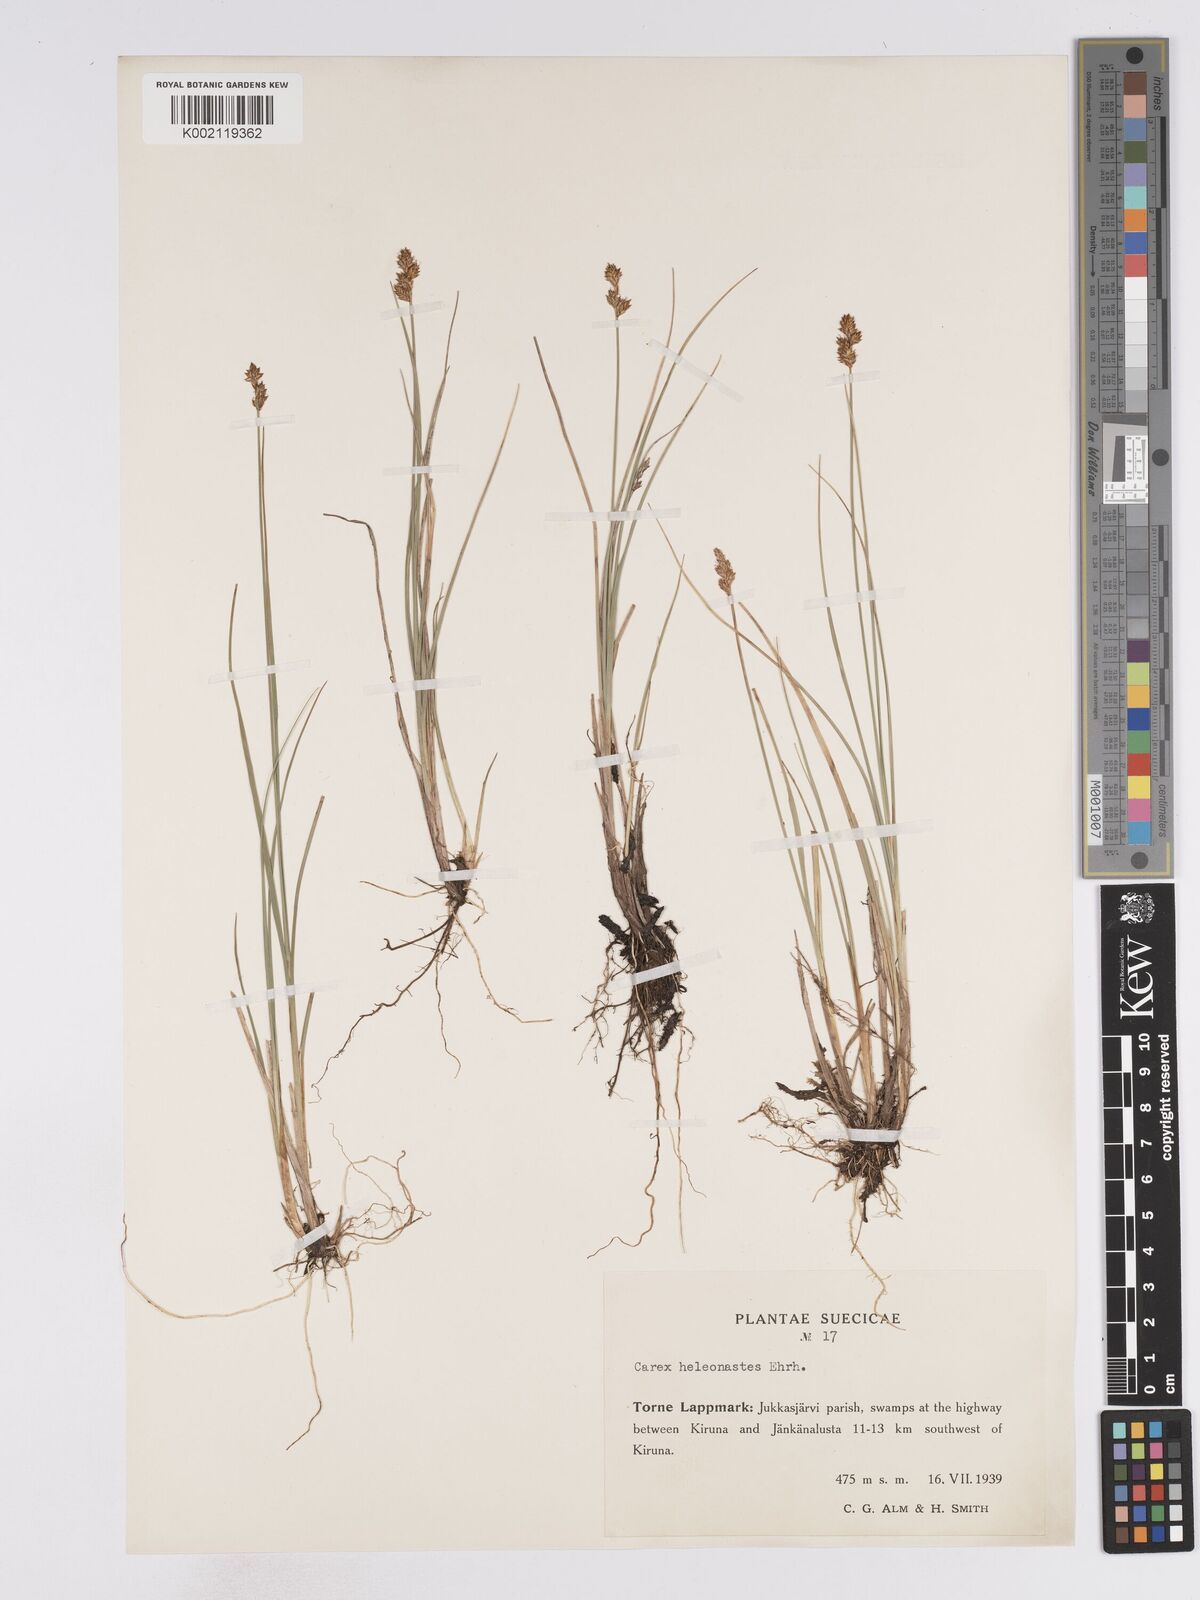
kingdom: Plantae
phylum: Tracheophyta
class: Liliopsida
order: Poales
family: Cyperaceae
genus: Carex
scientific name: Carex heleonastes
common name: Hudson bay sedge
